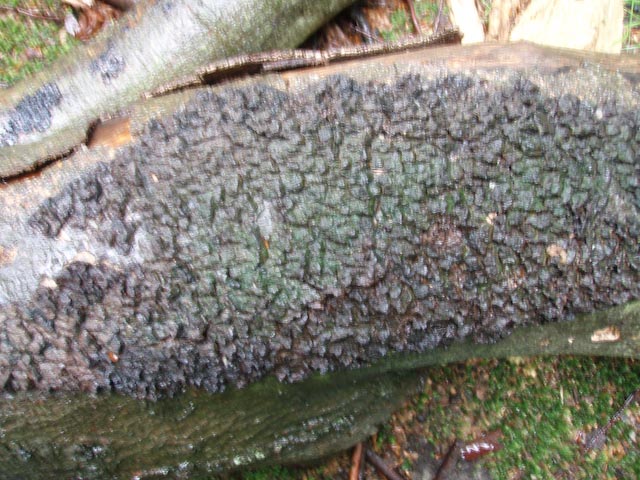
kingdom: Fungi
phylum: Basidiomycota
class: Agaricomycetes
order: Hymenochaetales
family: Hymenochaetaceae
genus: Mensularia
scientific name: Mensularia nodulosa
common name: bøge-spejlporesvamp
